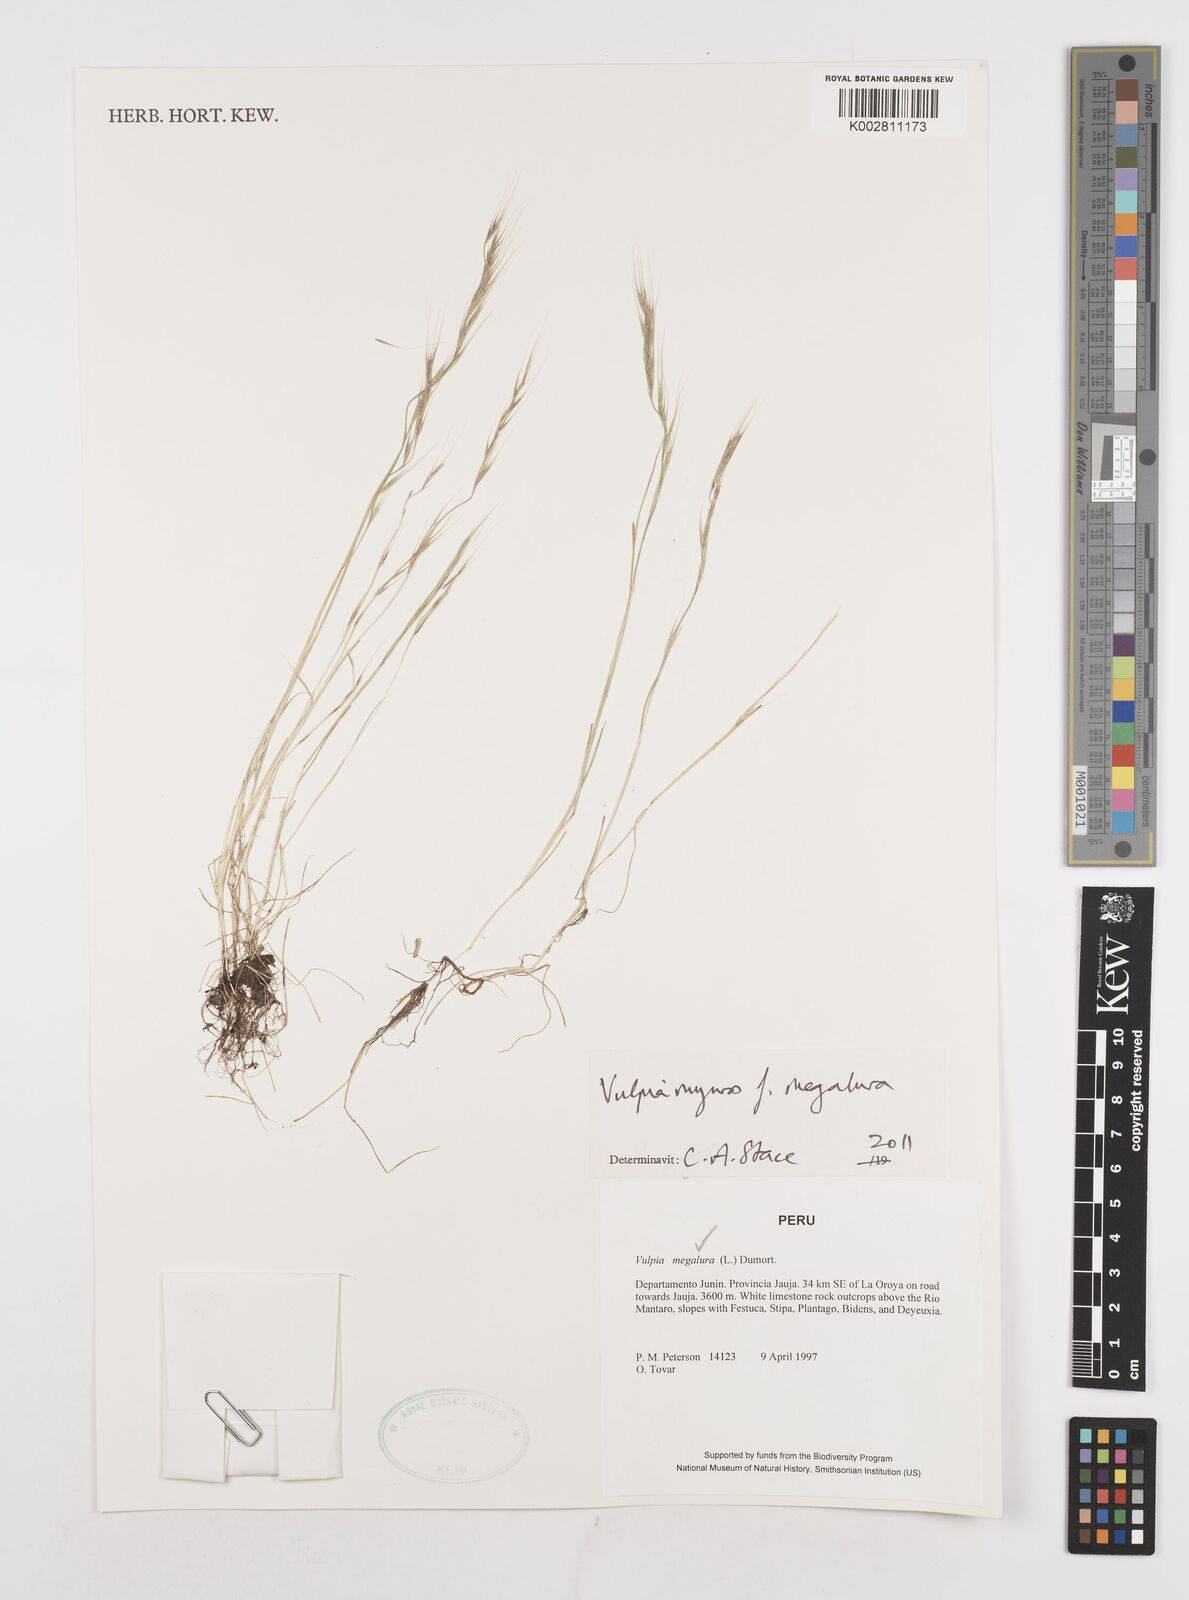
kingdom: Plantae
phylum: Tracheophyta
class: Liliopsida
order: Poales
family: Poaceae
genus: Festuca
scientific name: Festuca myuros
